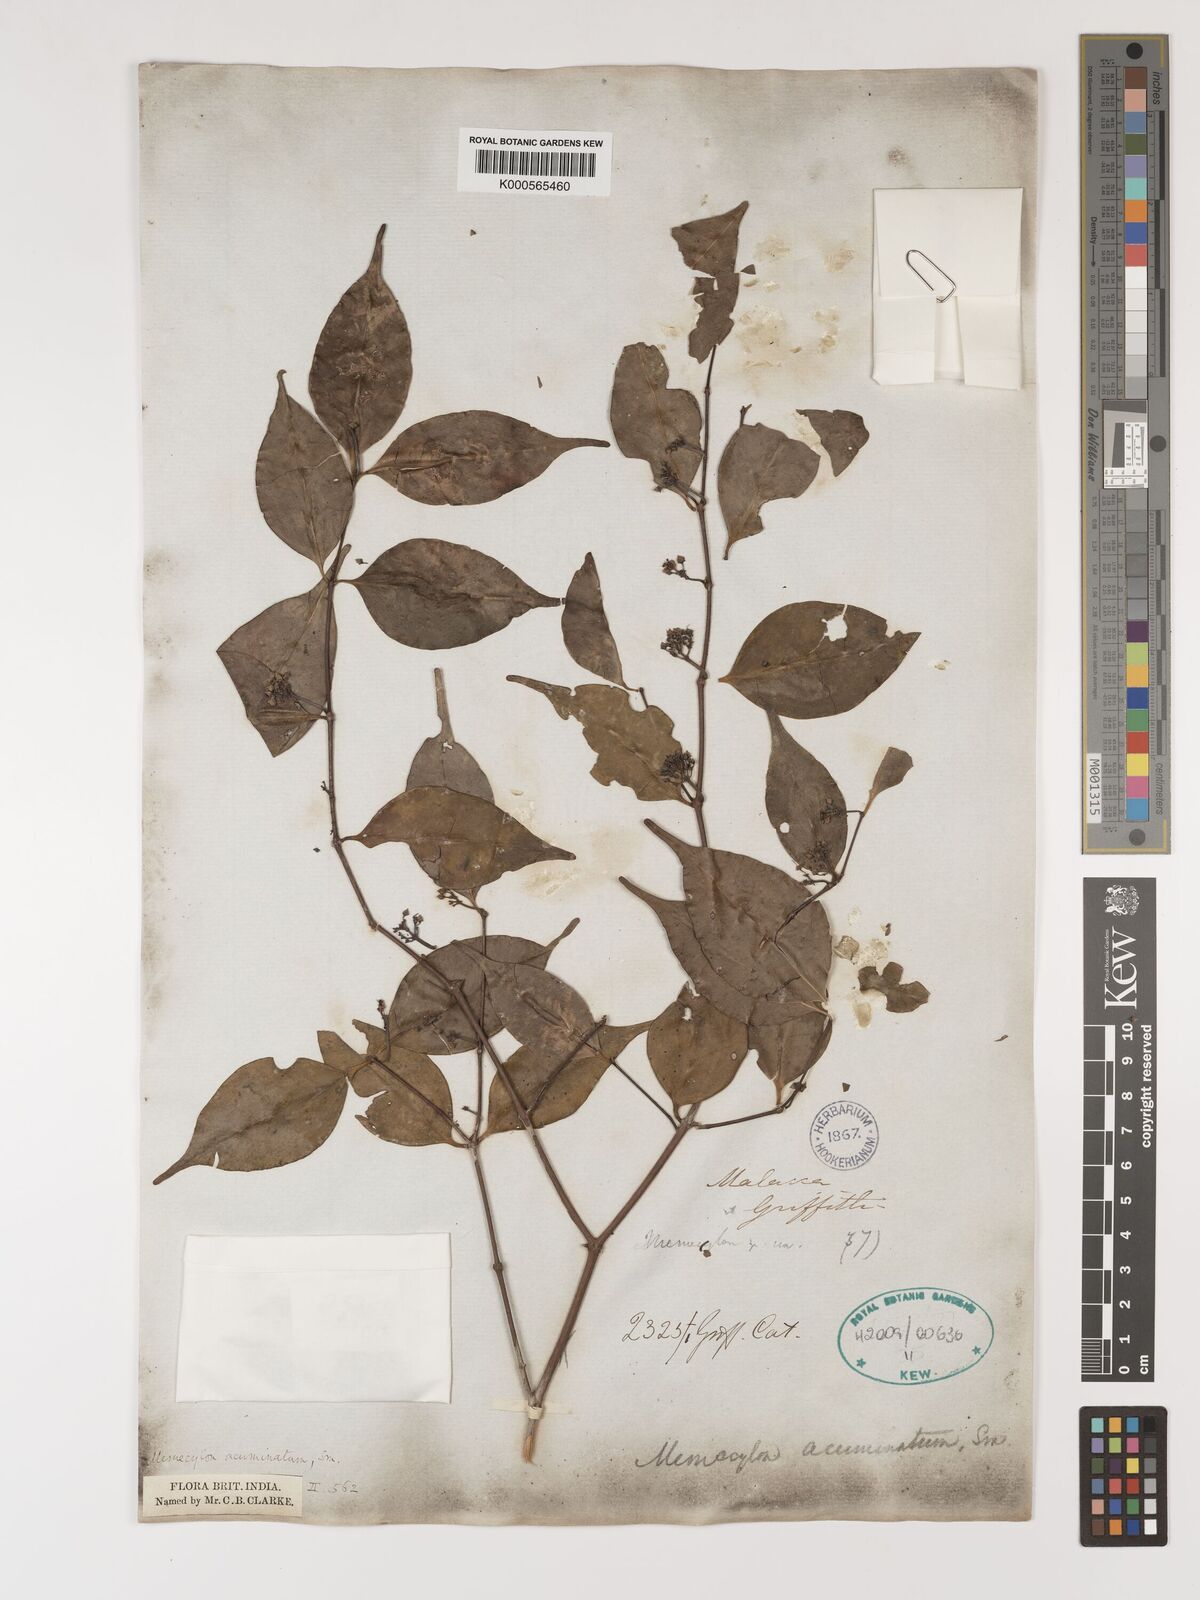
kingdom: Plantae
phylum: Tracheophyta
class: Magnoliopsida
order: Myrtales
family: Melastomataceae
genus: Memecylon
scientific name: Memecylon acuminatum
